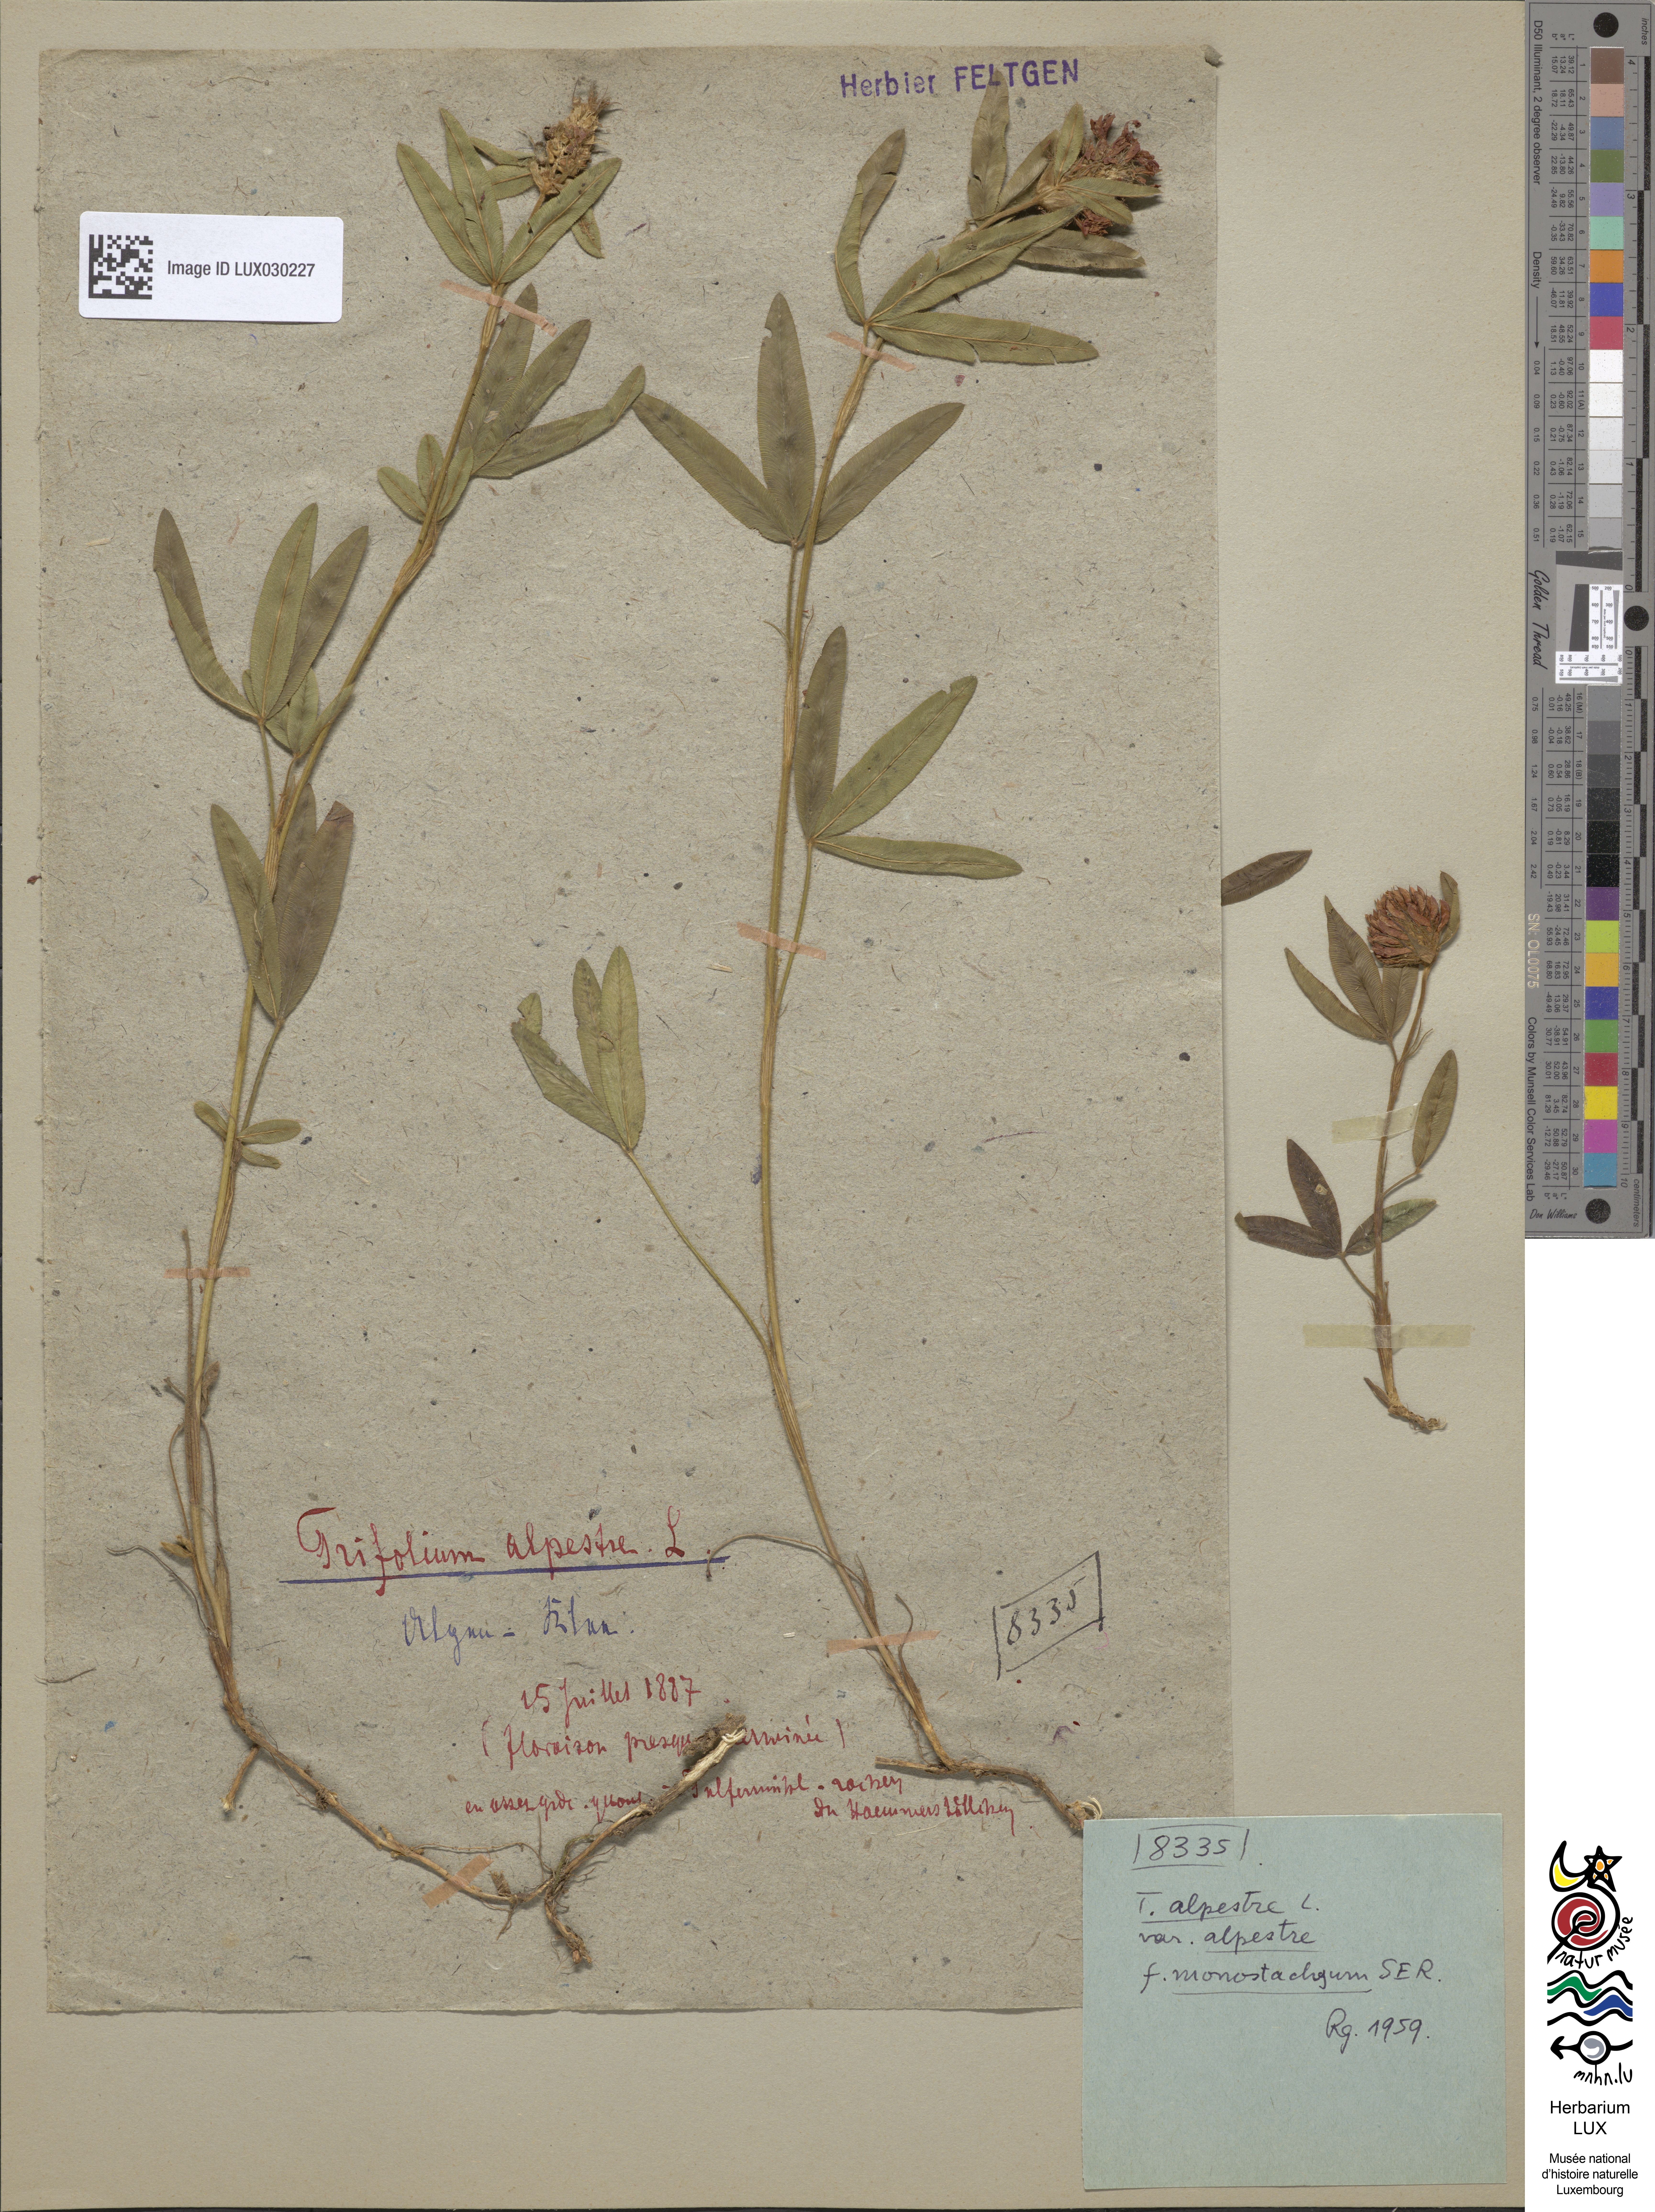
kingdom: Plantae
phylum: Tracheophyta
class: Magnoliopsida
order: Fabales
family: Fabaceae
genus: Trifolium
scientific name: Trifolium alpestre
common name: Owl-head clover
